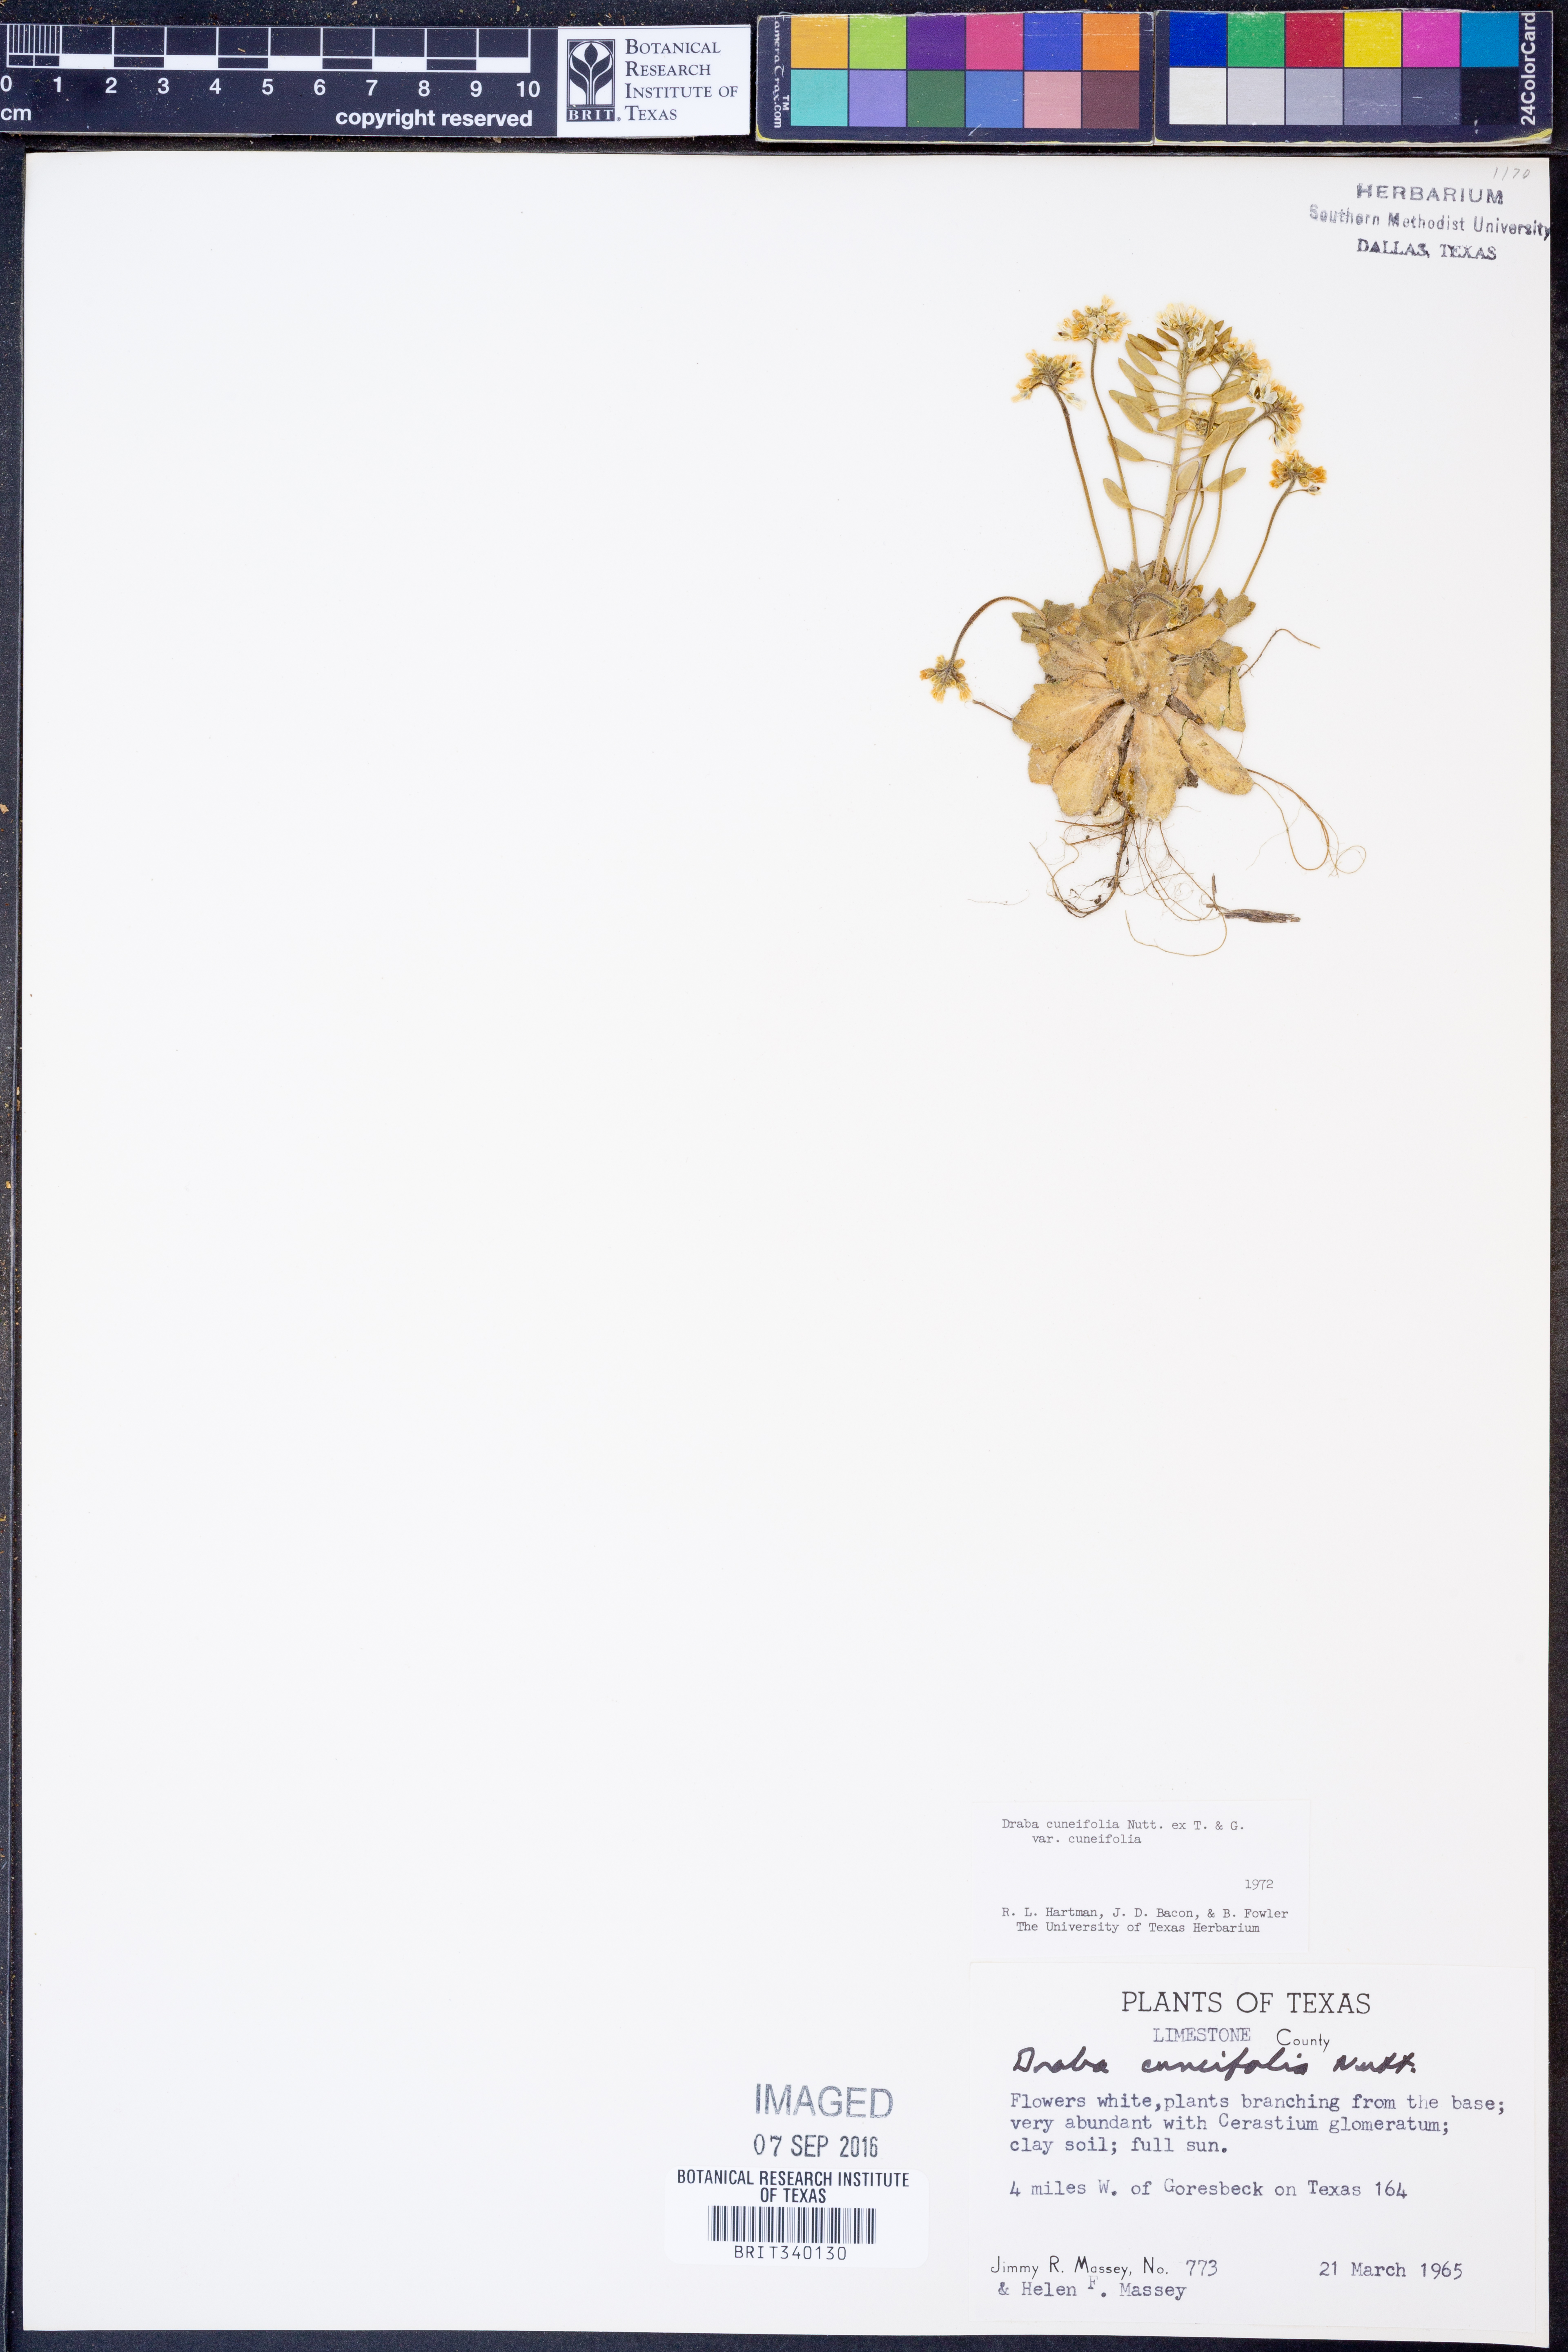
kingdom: Plantae
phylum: Tracheophyta
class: Magnoliopsida
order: Brassicales
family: Brassicaceae
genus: Tomostima
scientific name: Tomostima cuneifolia
